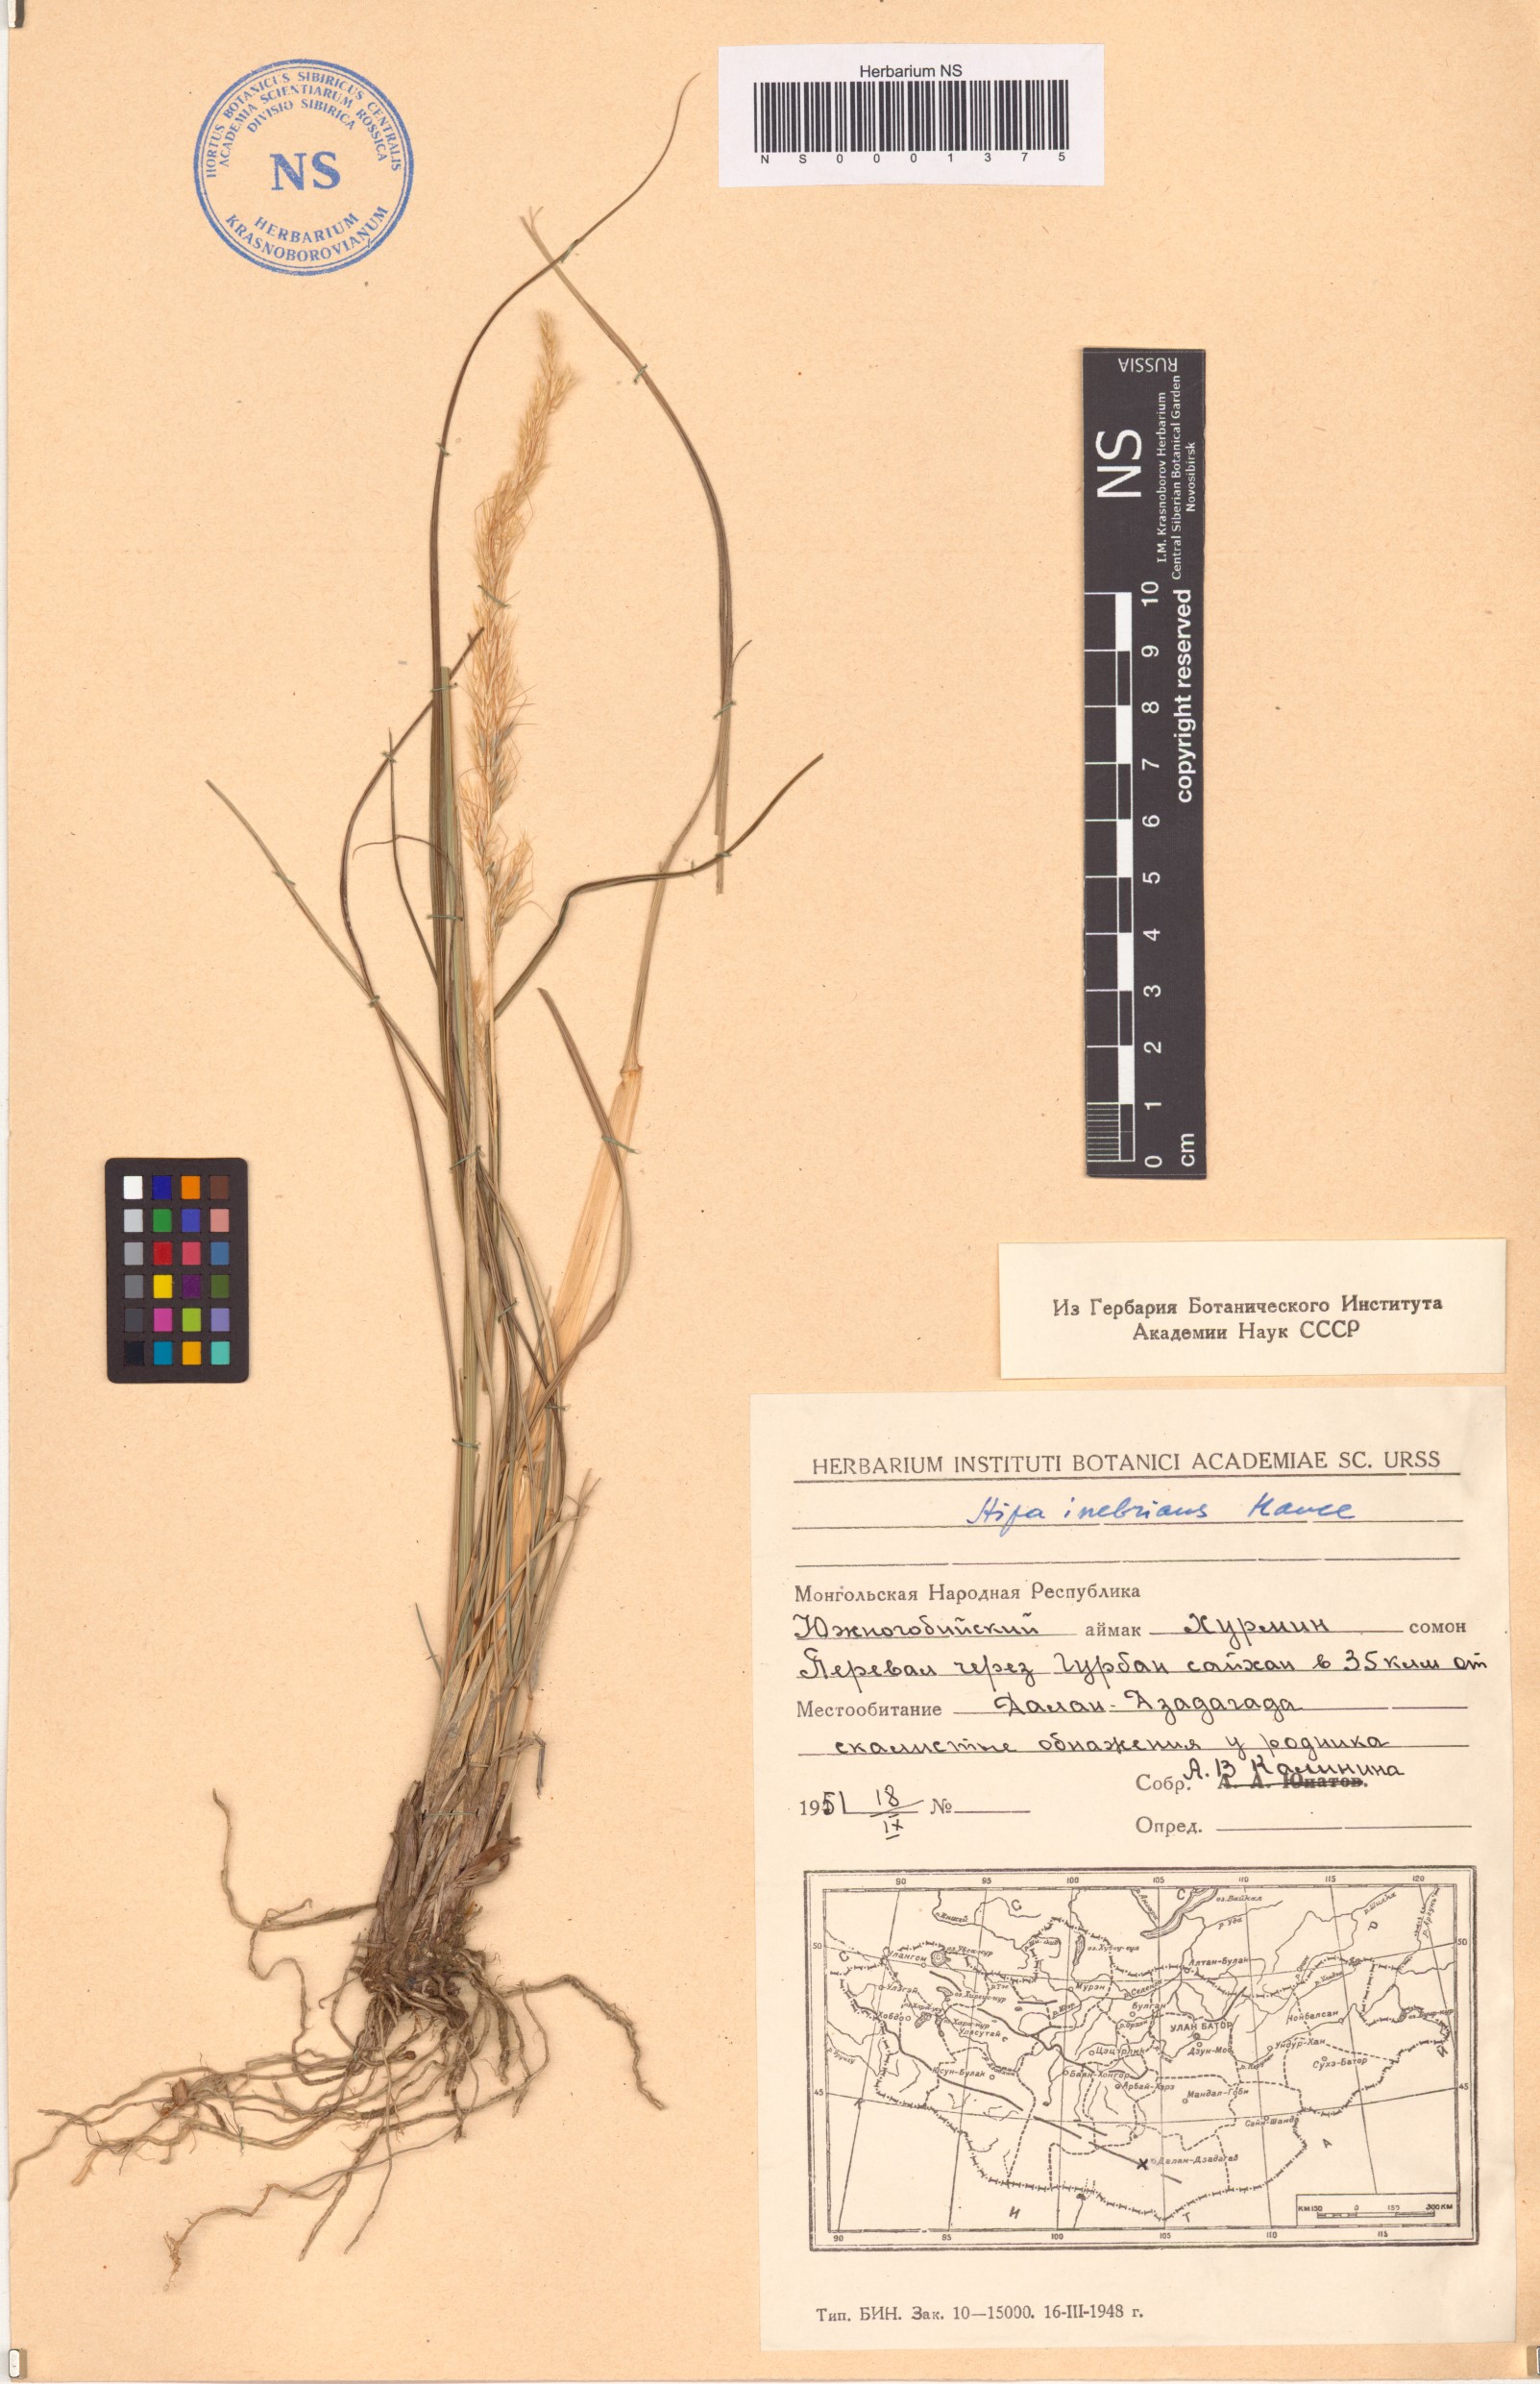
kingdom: Plantae
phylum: Tracheophyta
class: Liliopsida
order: Poales
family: Poaceae
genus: Achnatherum
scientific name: Achnatherum inebrians
